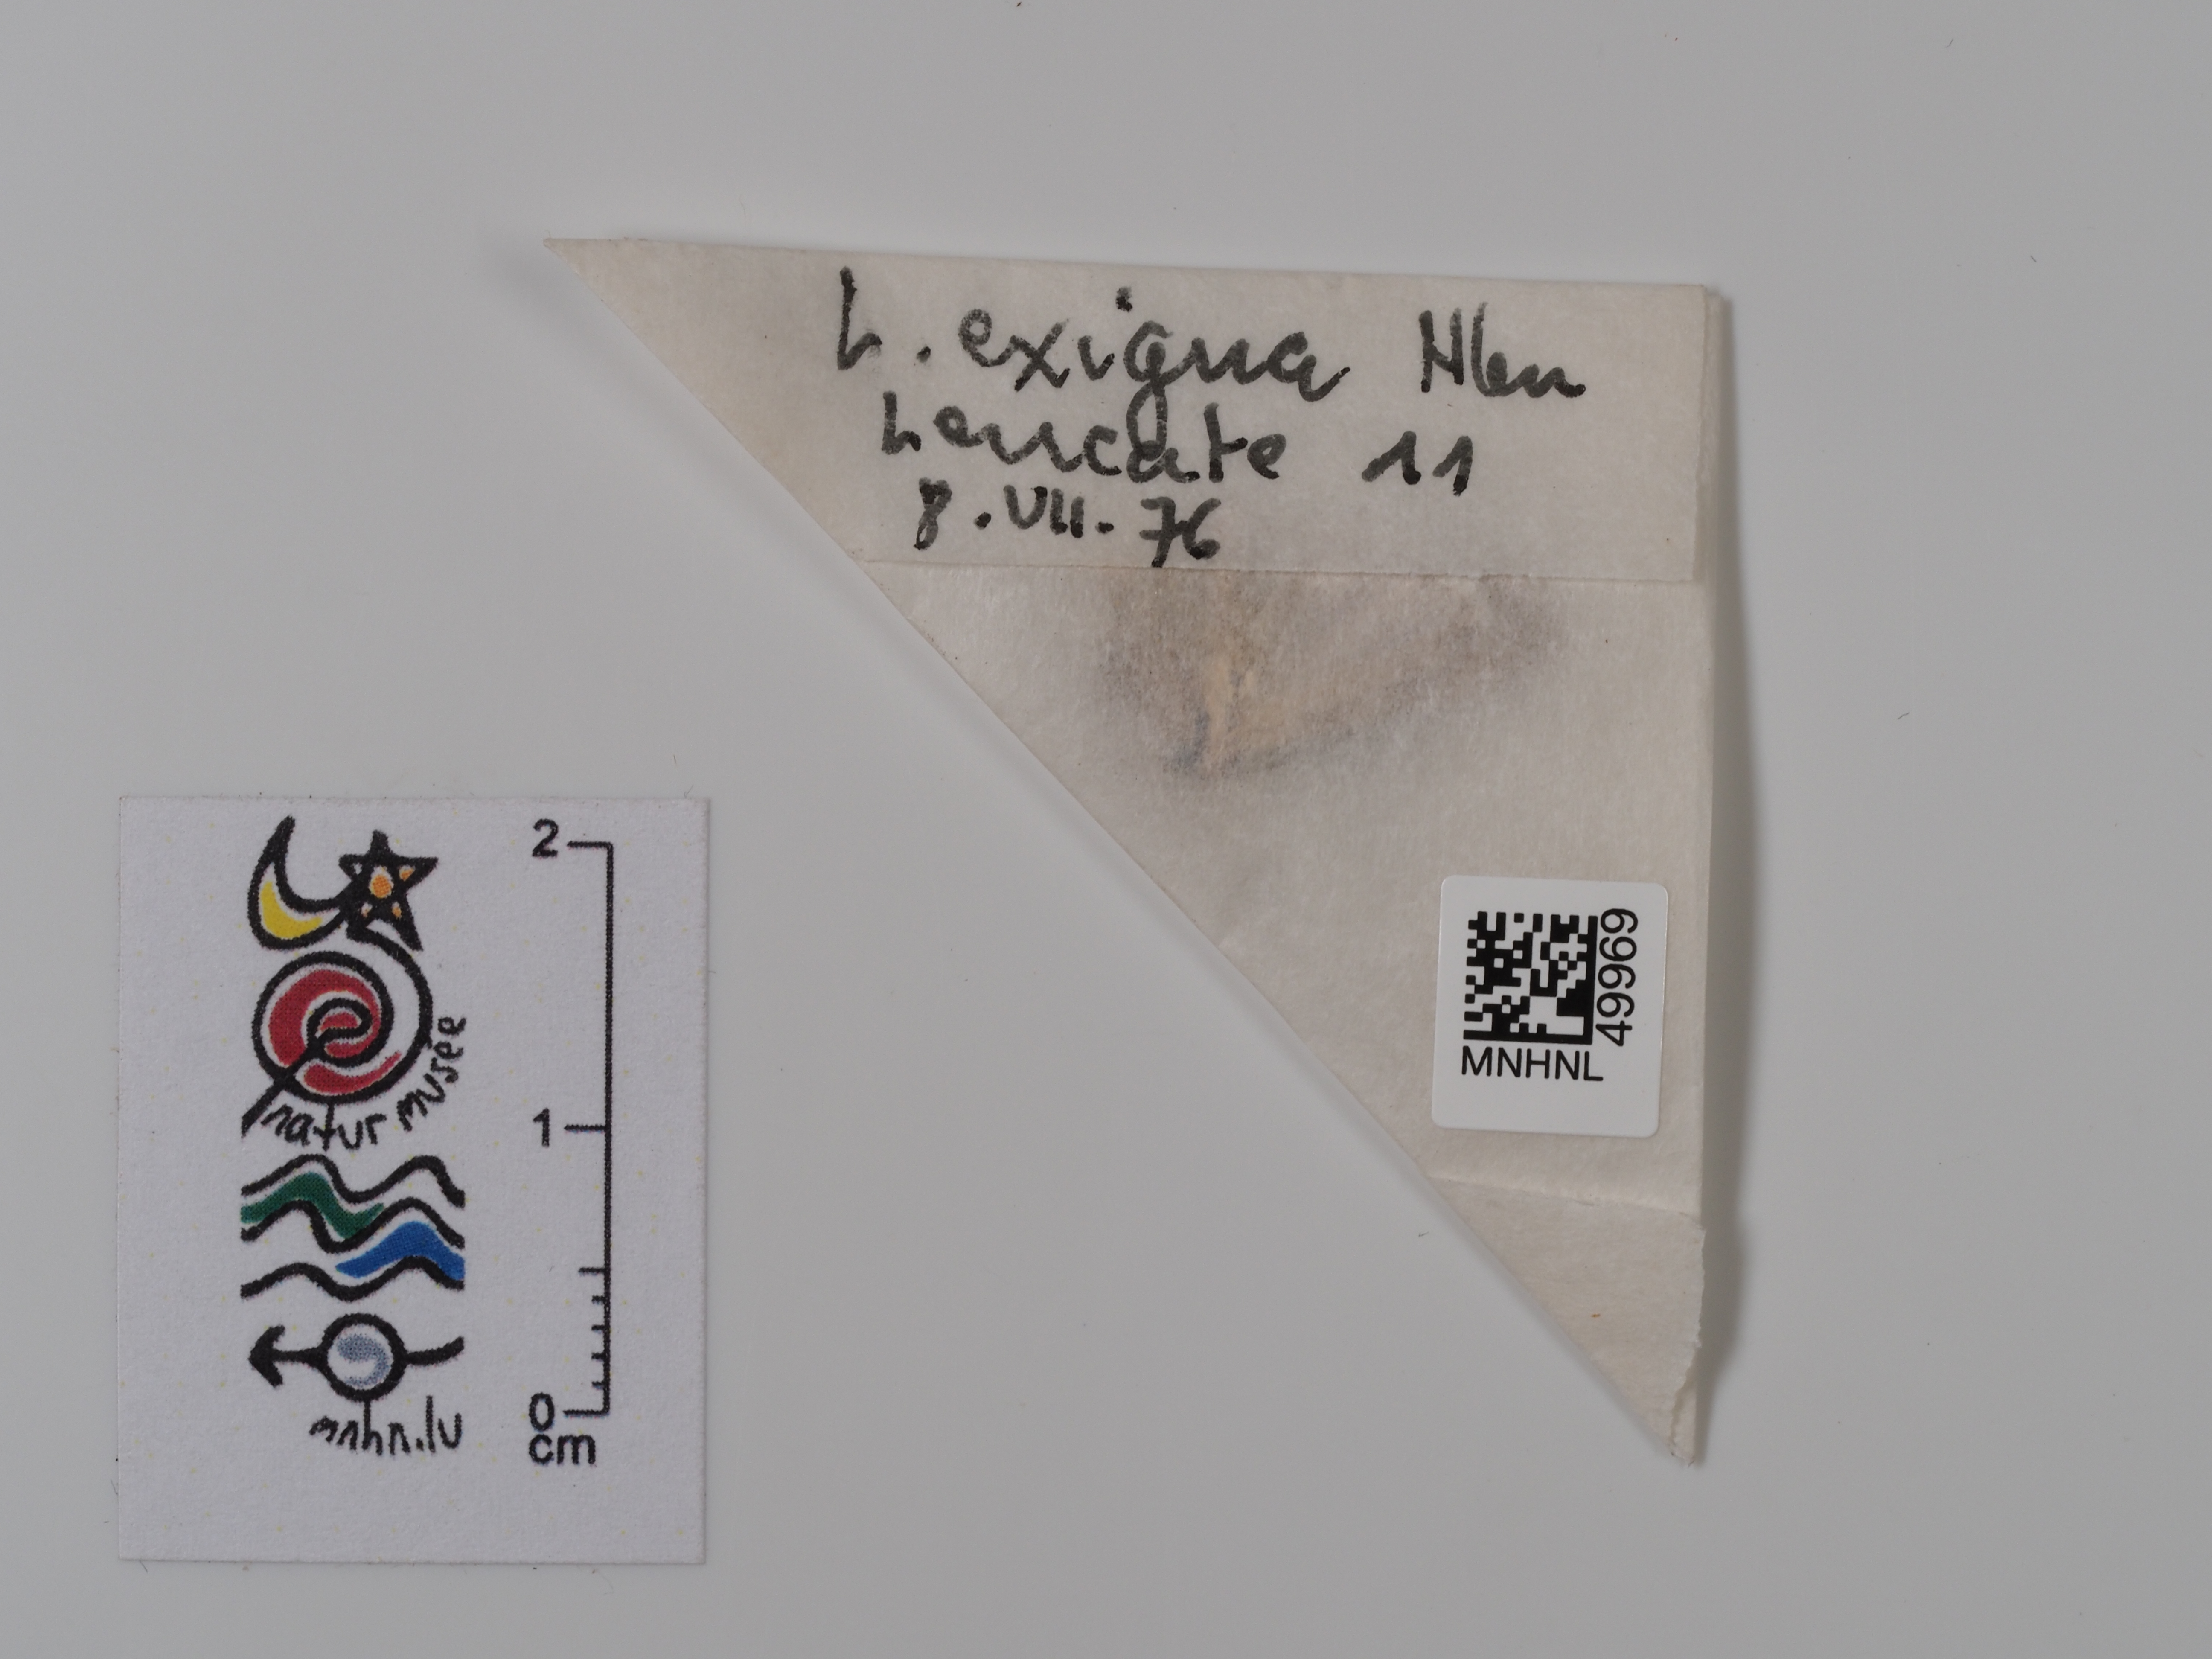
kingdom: Animalia
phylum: Arthropoda
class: Insecta
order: Lepidoptera
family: Noctuidae
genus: Spodoptera
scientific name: Spodoptera exigua
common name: Beet armyworm
